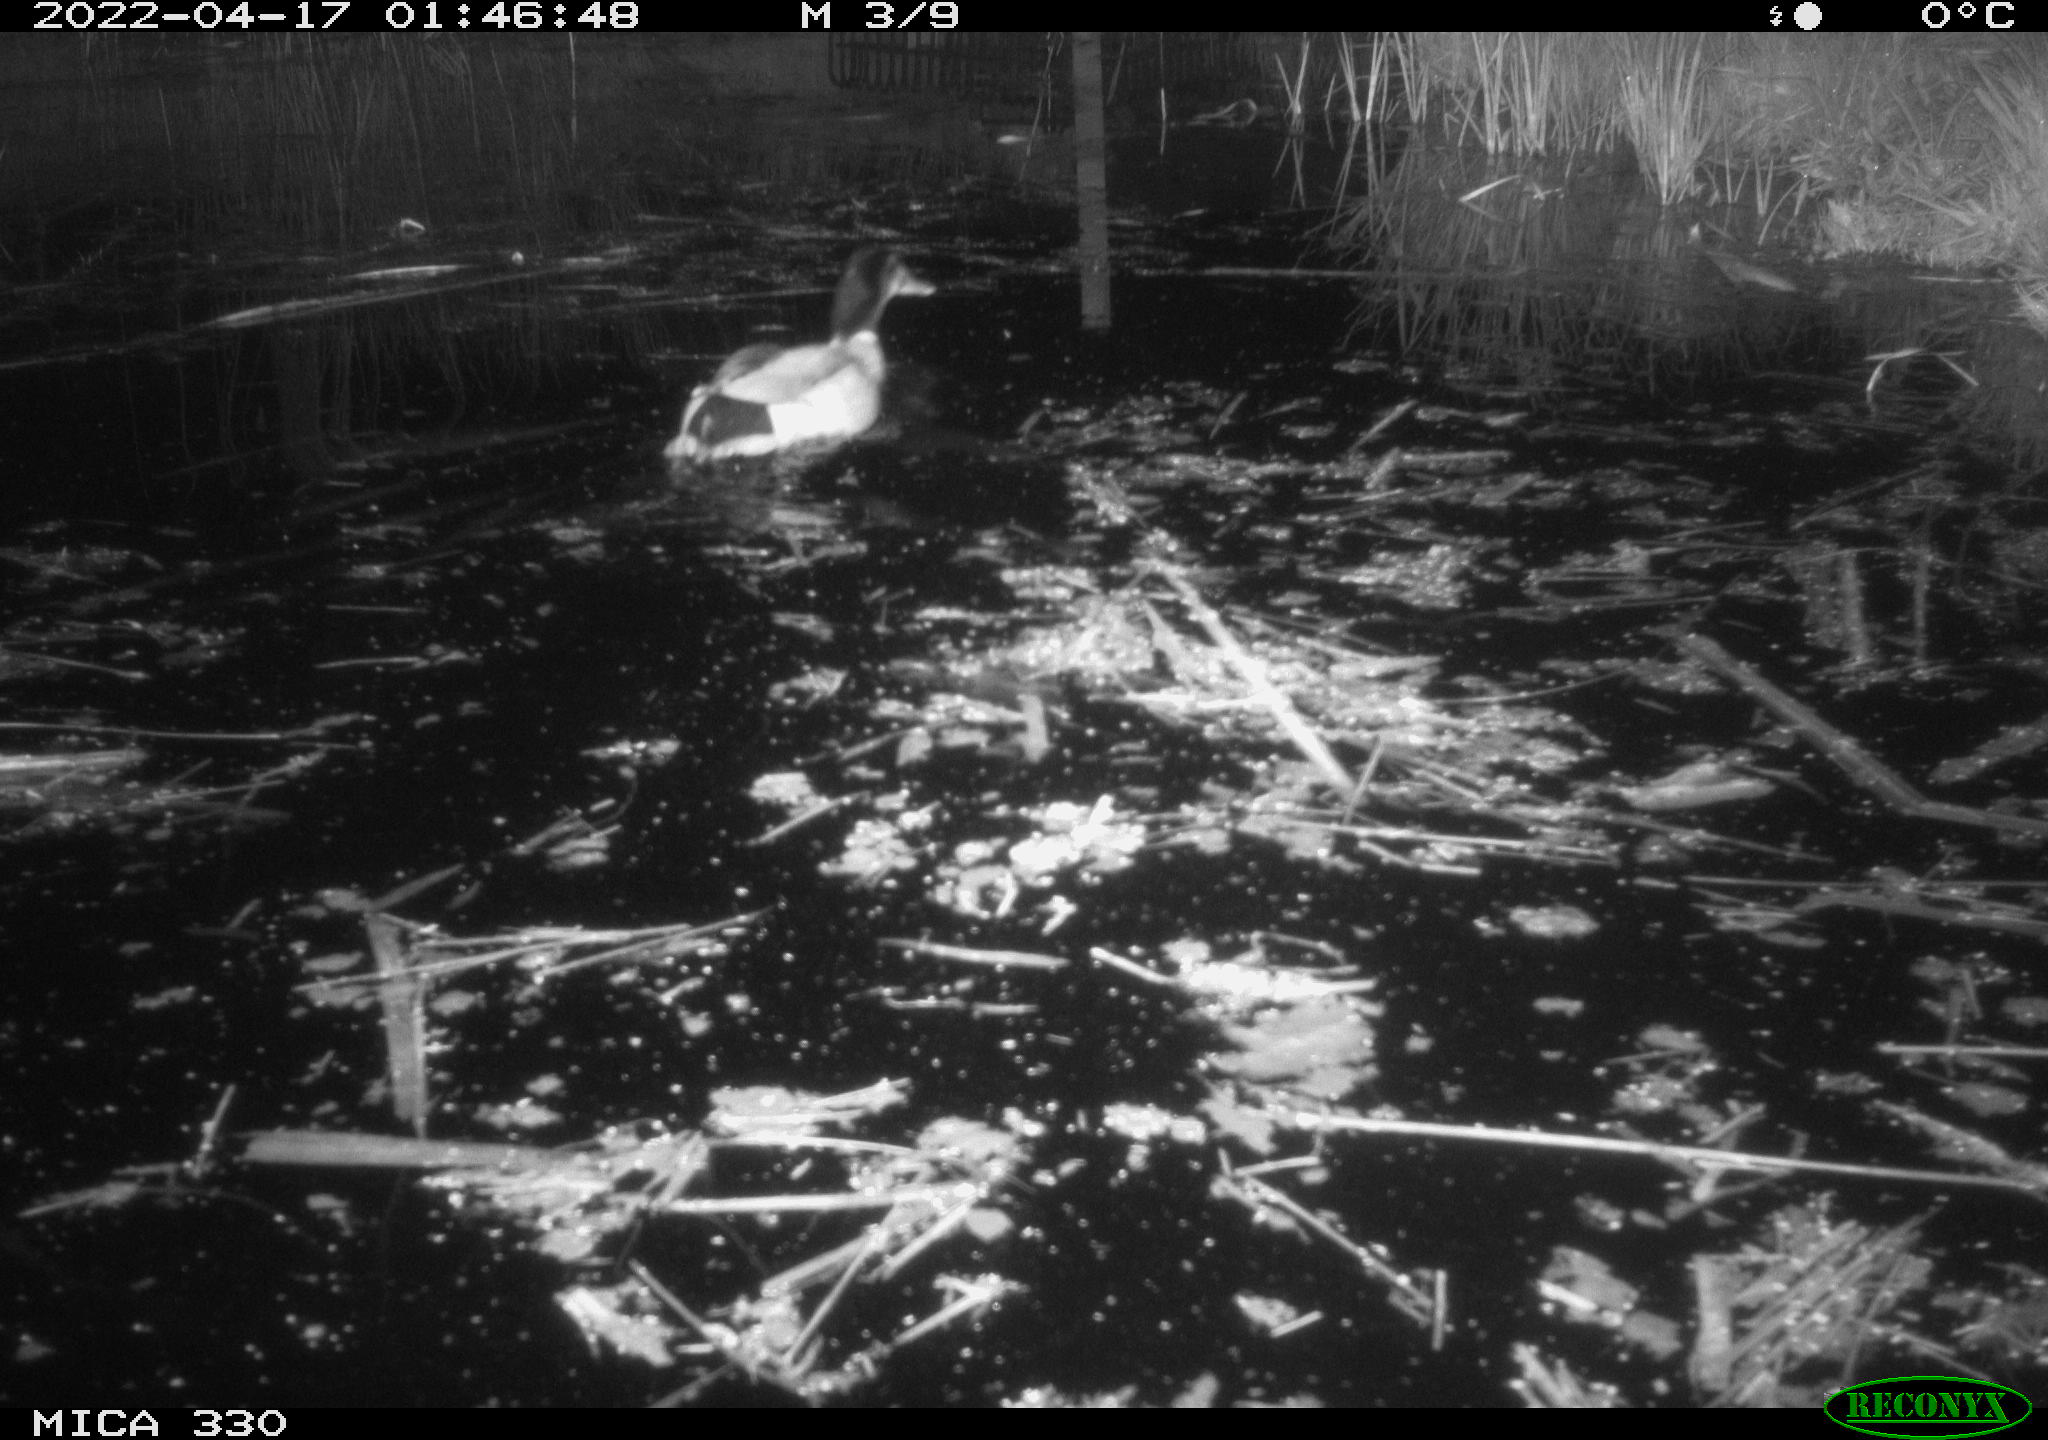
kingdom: Animalia
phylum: Chordata
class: Aves
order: Anseriformes
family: Anatidae
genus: Anas
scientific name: Anas platyrhynchos
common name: Mallard
